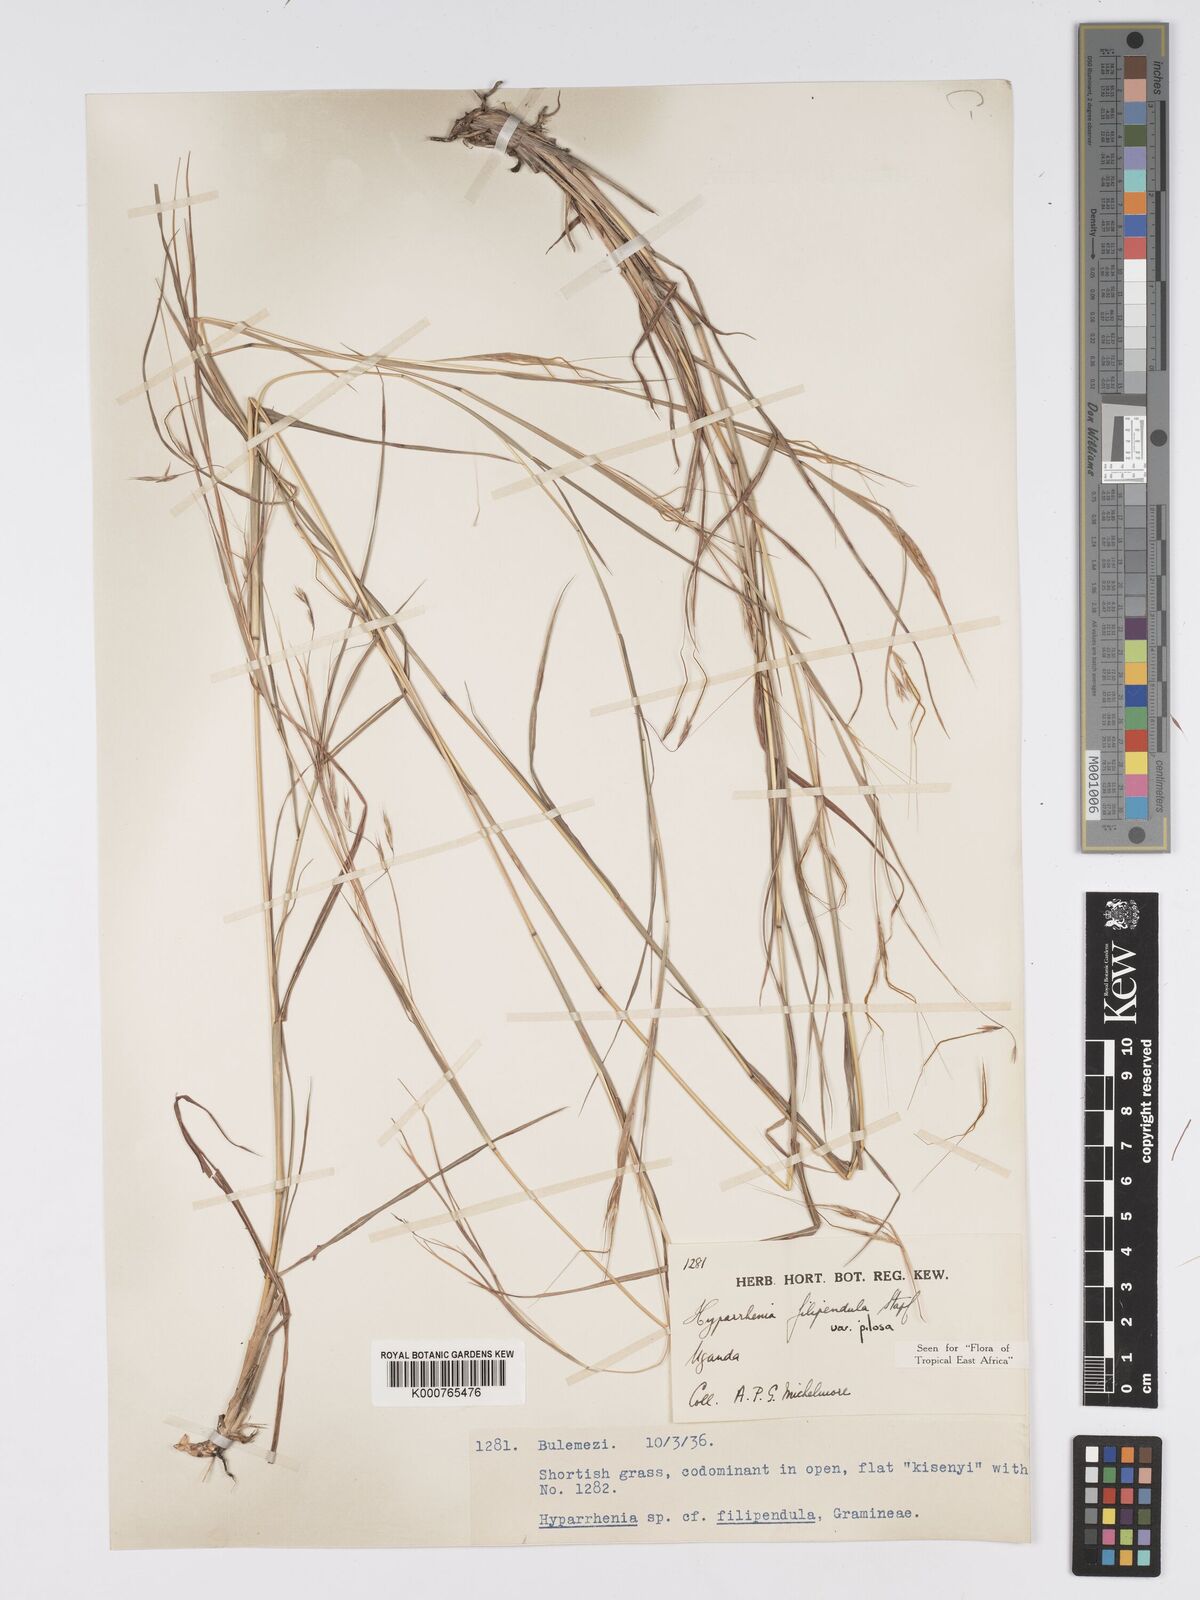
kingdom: Plantae
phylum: Tracheophyta
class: Liliopsida
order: Poales
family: Poaceae
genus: Hyparrhenia
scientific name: Hyparrhenia filipendula
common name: Tambookie grass
